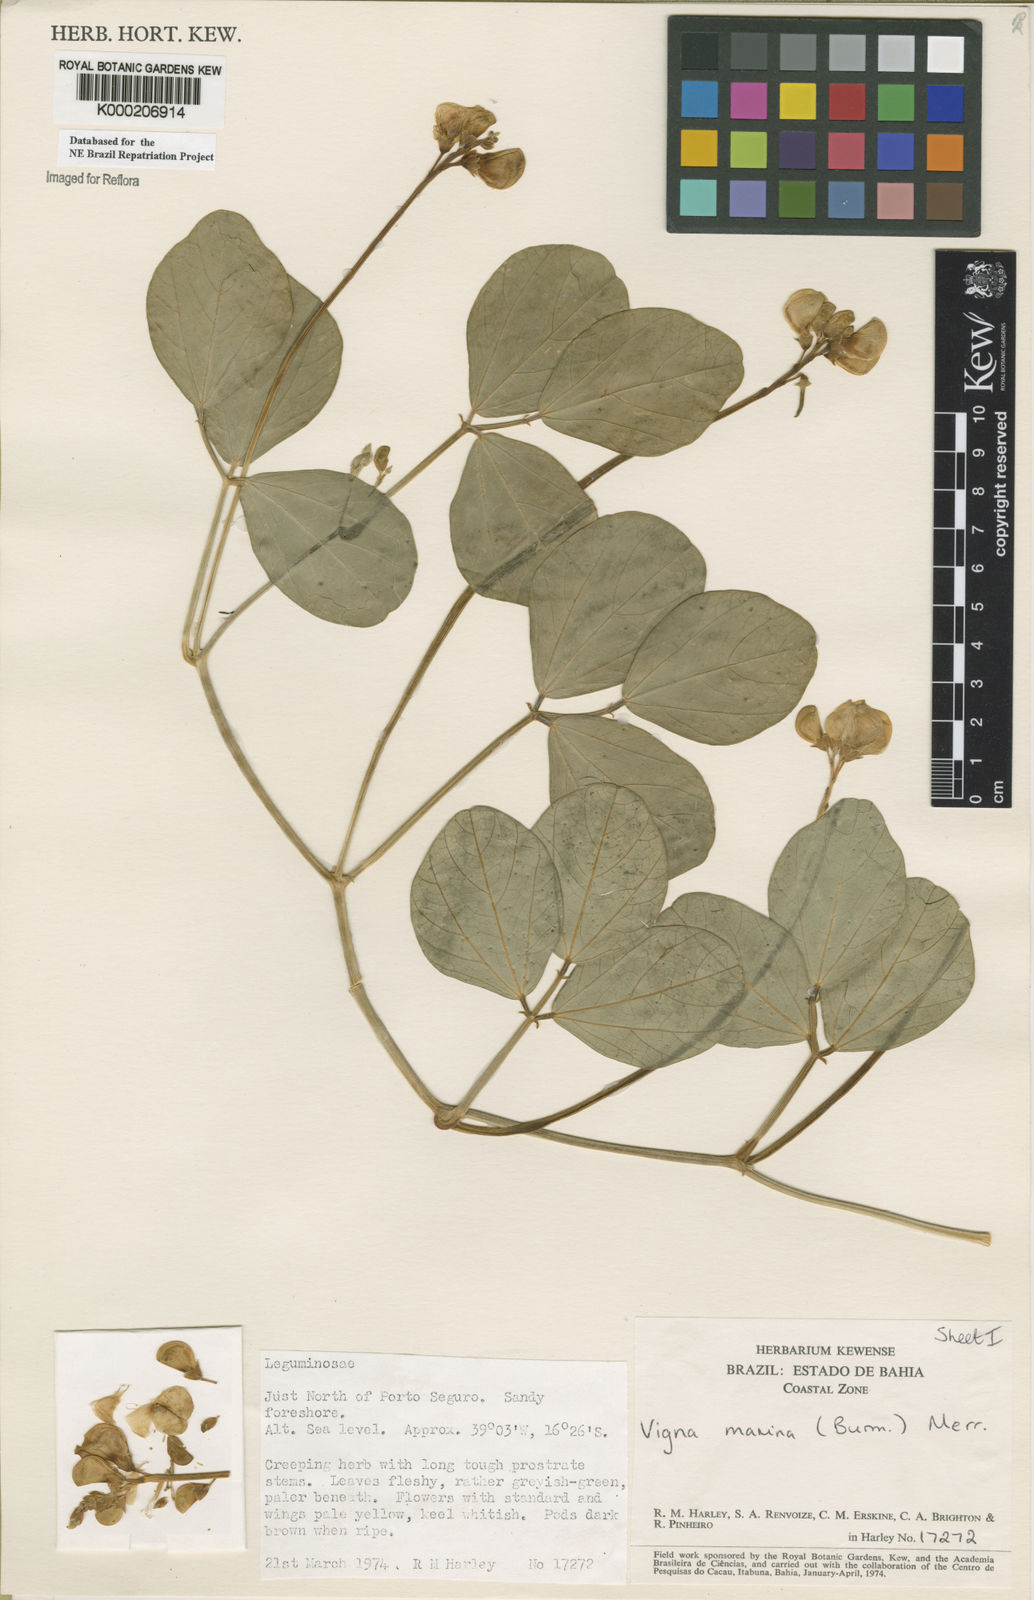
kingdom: Plantae
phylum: Tracheophyta
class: Magnoliopsida
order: Fabales
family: Fabaceae
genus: Vigna
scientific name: Vigna marina
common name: Dune-bean
